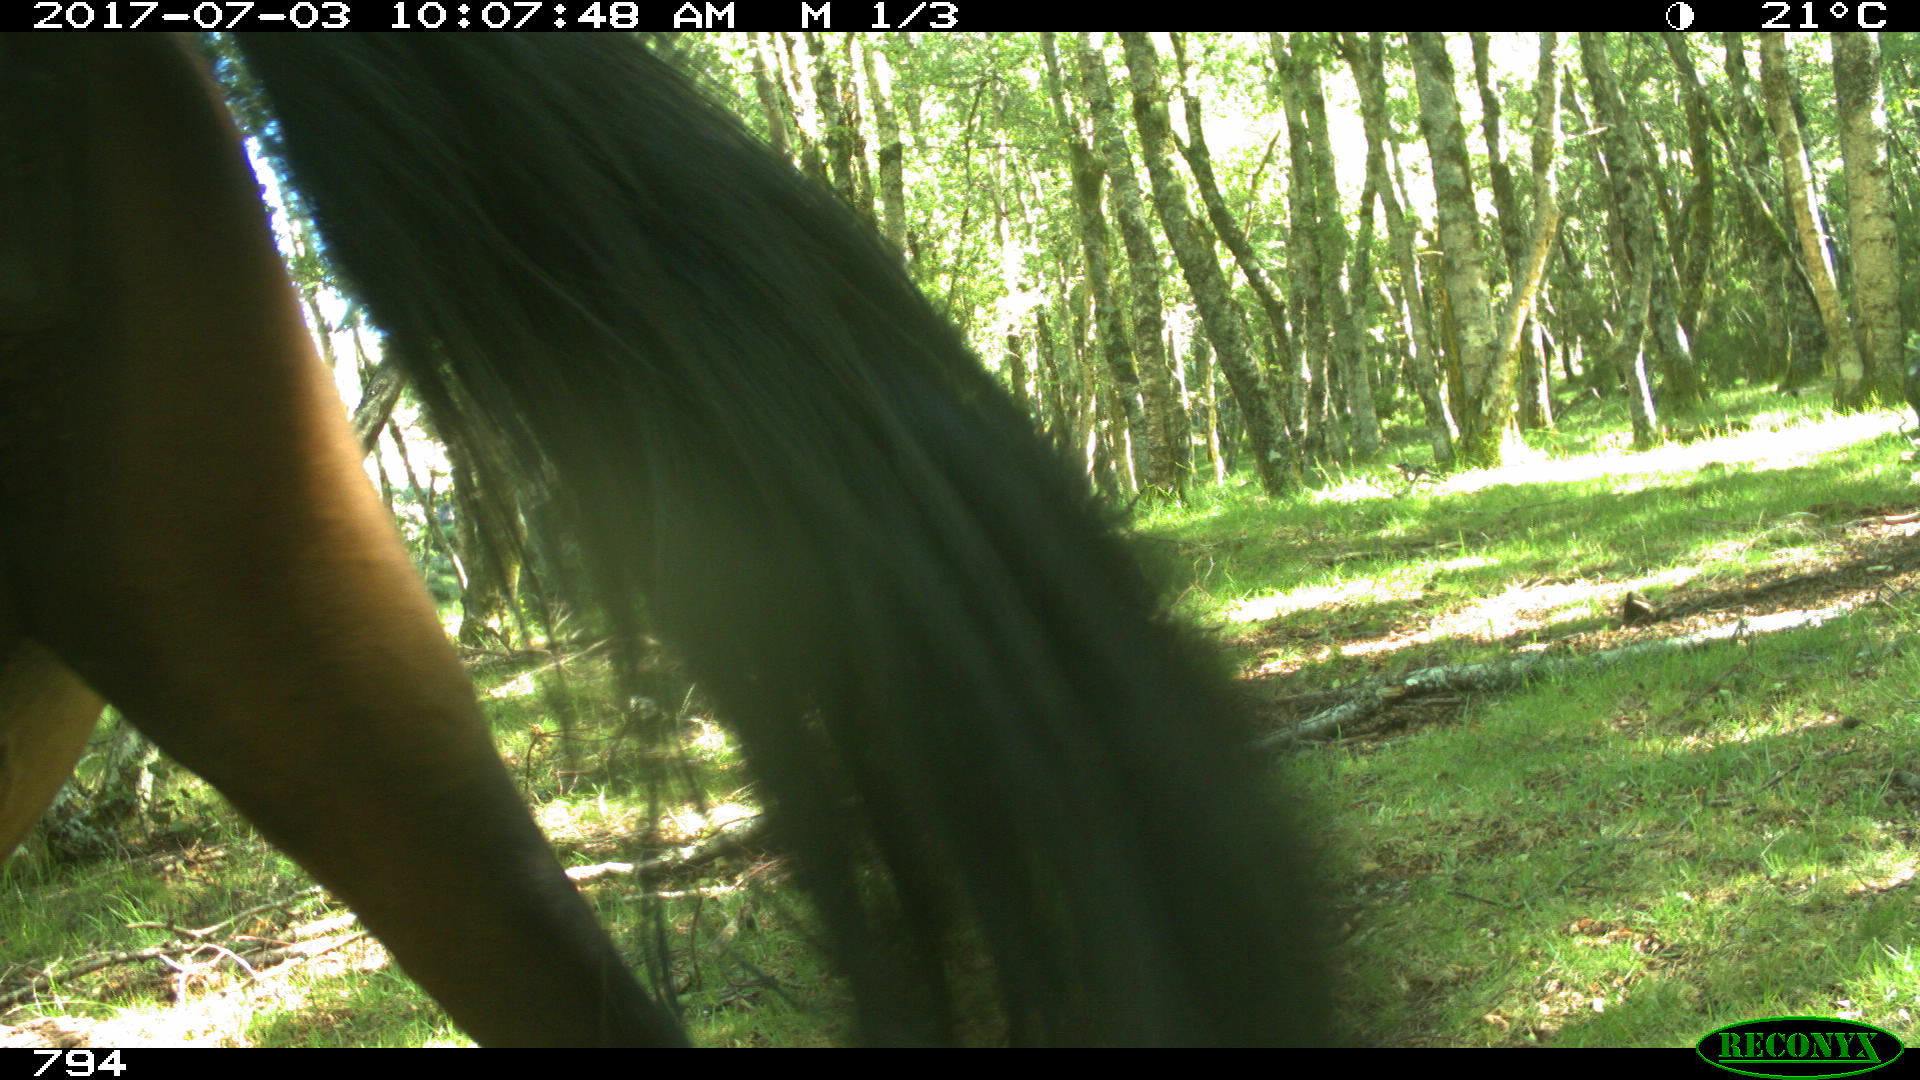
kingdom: Animalia
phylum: Chordata
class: Mammalia
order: Perissodactyla
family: Equidae
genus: Equus
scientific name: Equus caballus
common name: Horse
